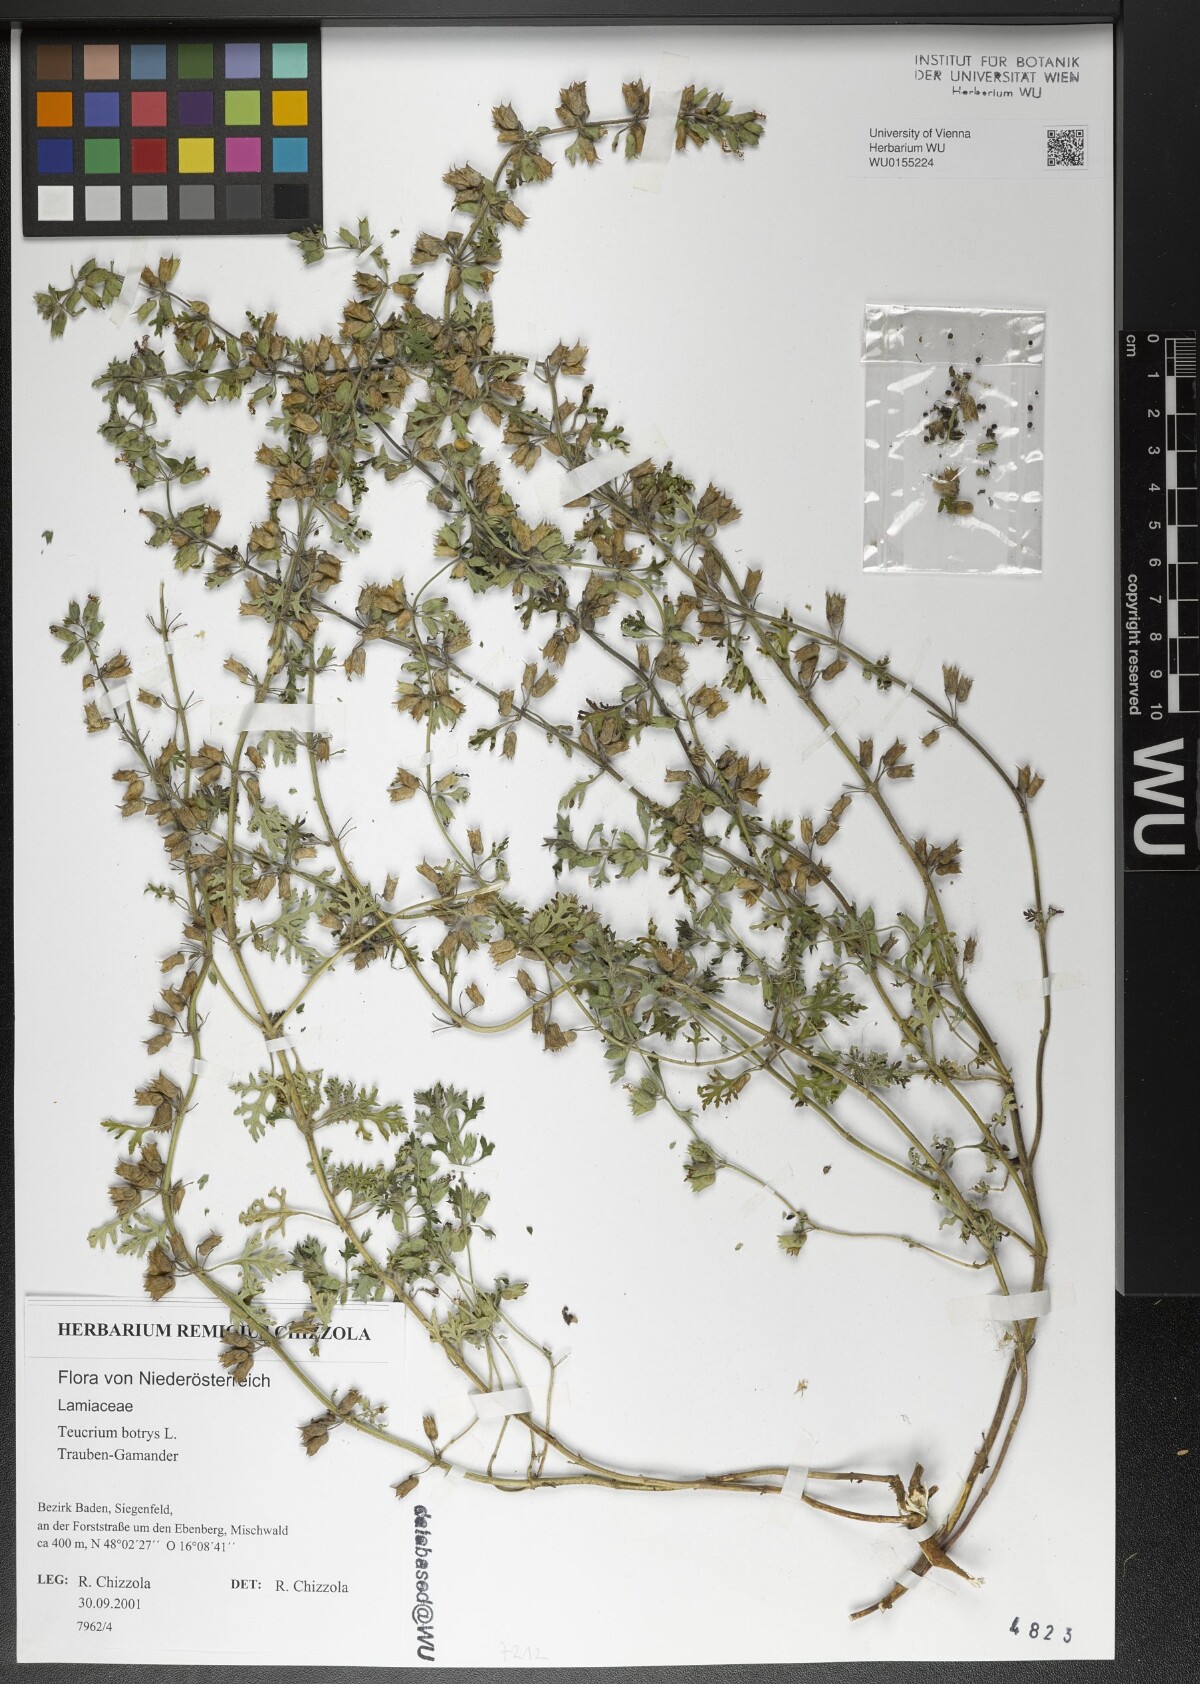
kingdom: Plantae
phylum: Tracheophyta
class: Magnoliopsida
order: Lamiales
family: Lamiaceae
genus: Teucrium
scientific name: Teucrium botrys
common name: Cut-leaved germander
